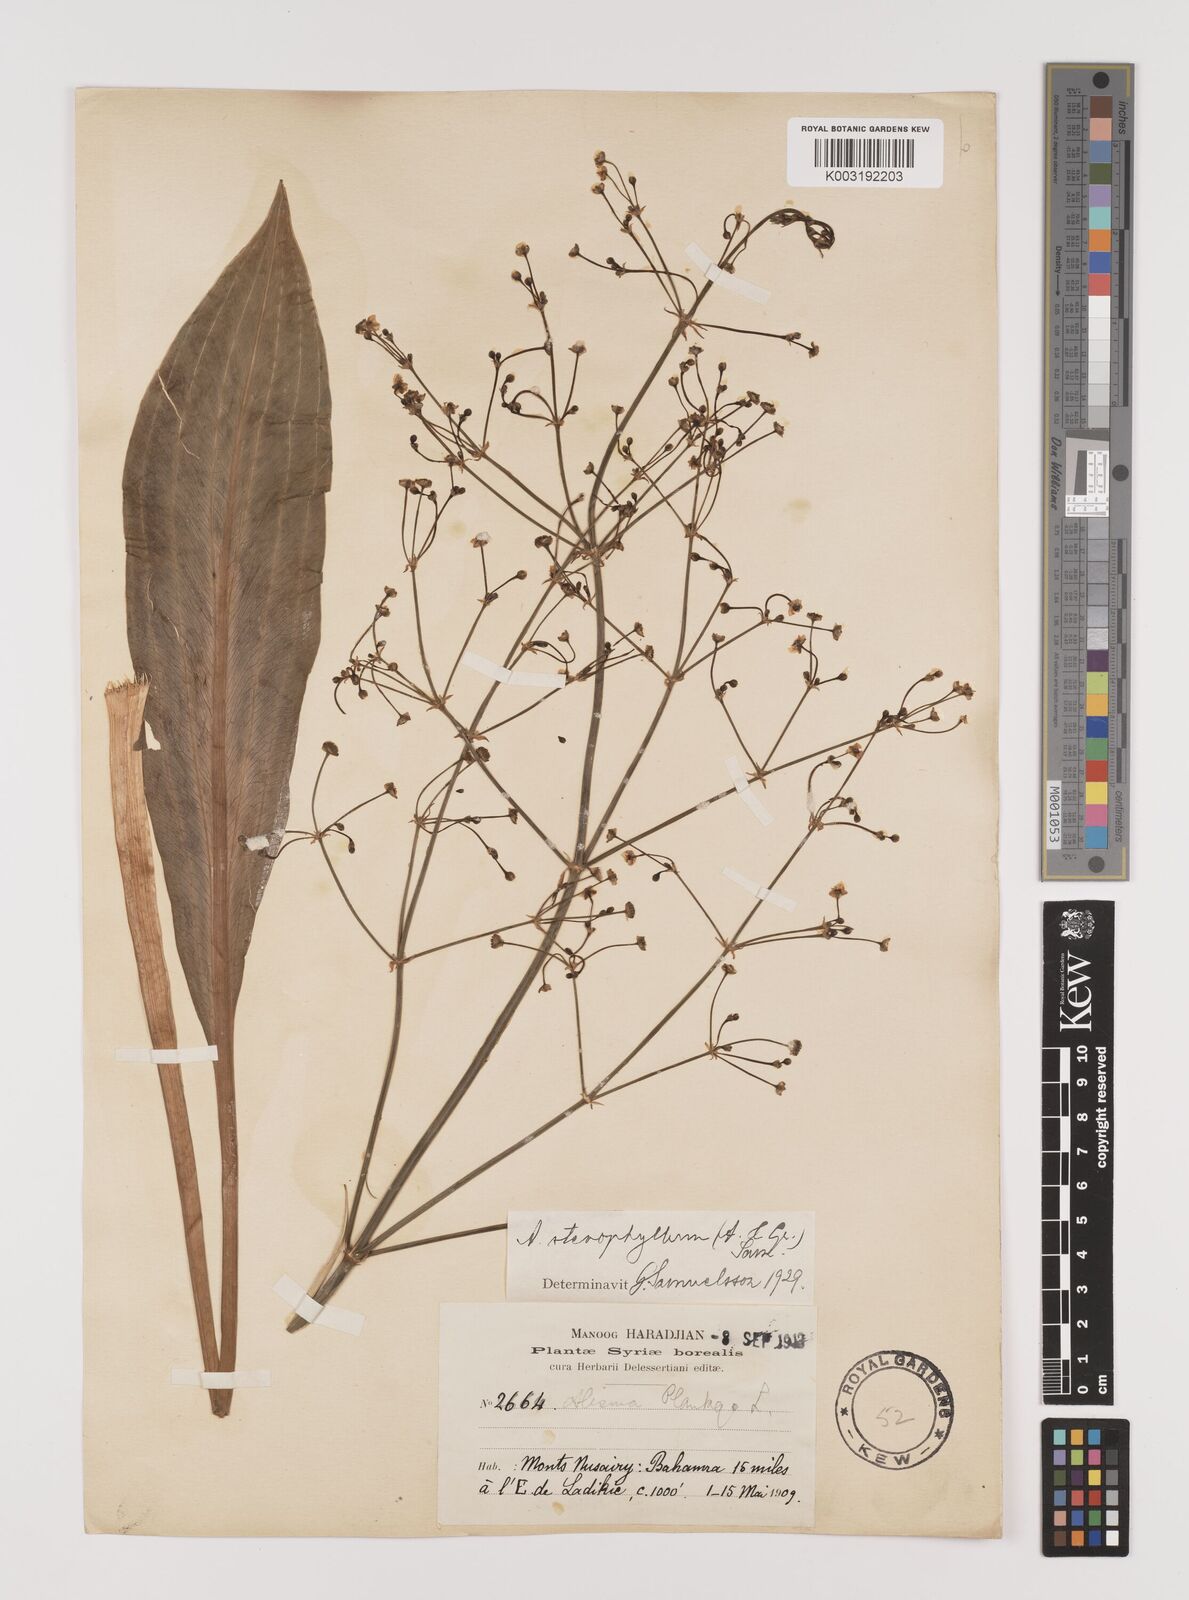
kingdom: Plantae
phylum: Tracheophyta
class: Liliopsida
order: Alismatales
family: Alismataceae
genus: Alisma
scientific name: Alisma lanceolatum
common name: Narrow-leaved water-plantain
